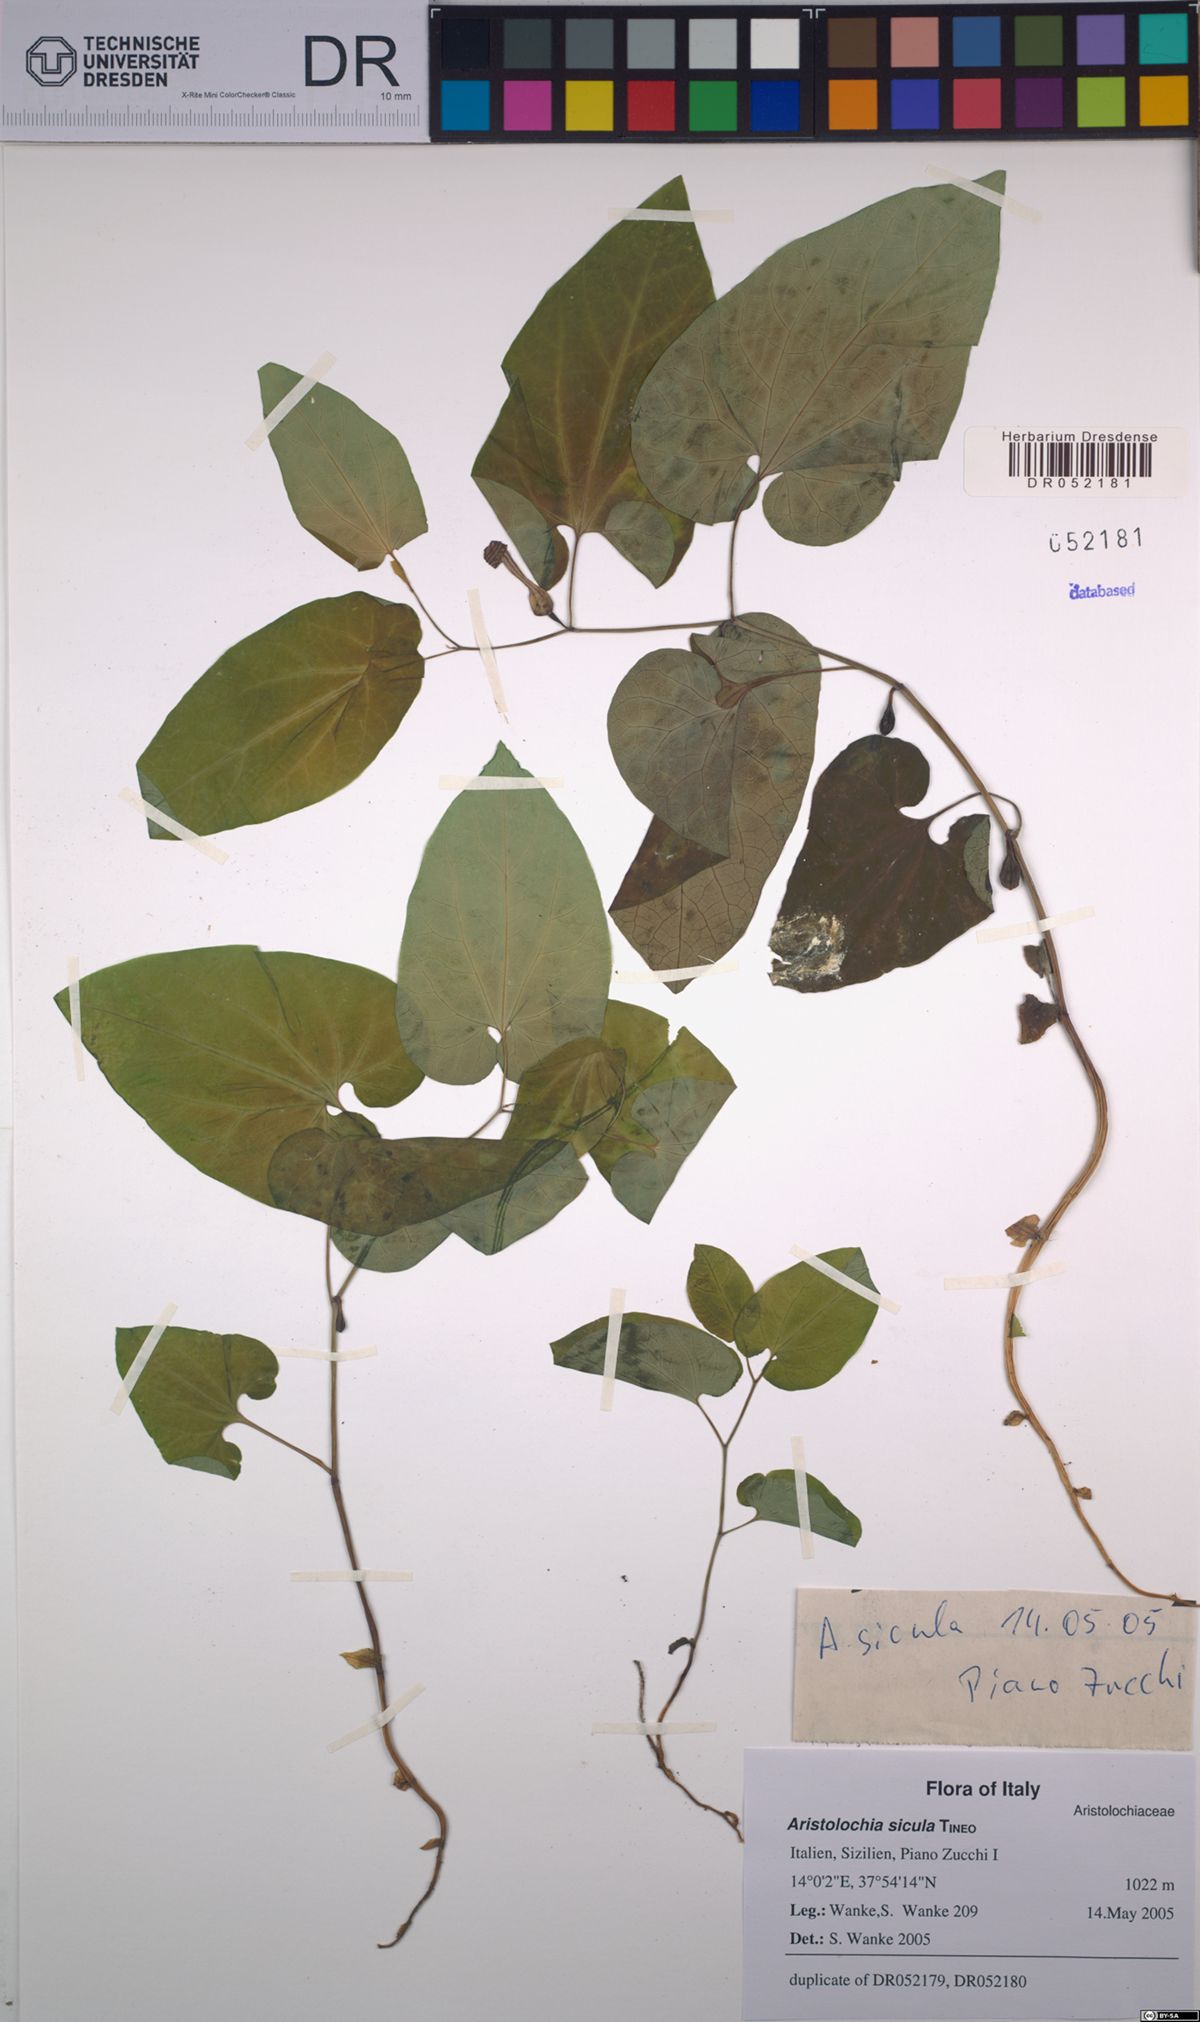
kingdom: Plantae
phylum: Tracheophyta
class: Magnoliopsida
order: Piperales
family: Aristolochiaceae
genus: Aristolochia
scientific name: Aristolochia sicula
